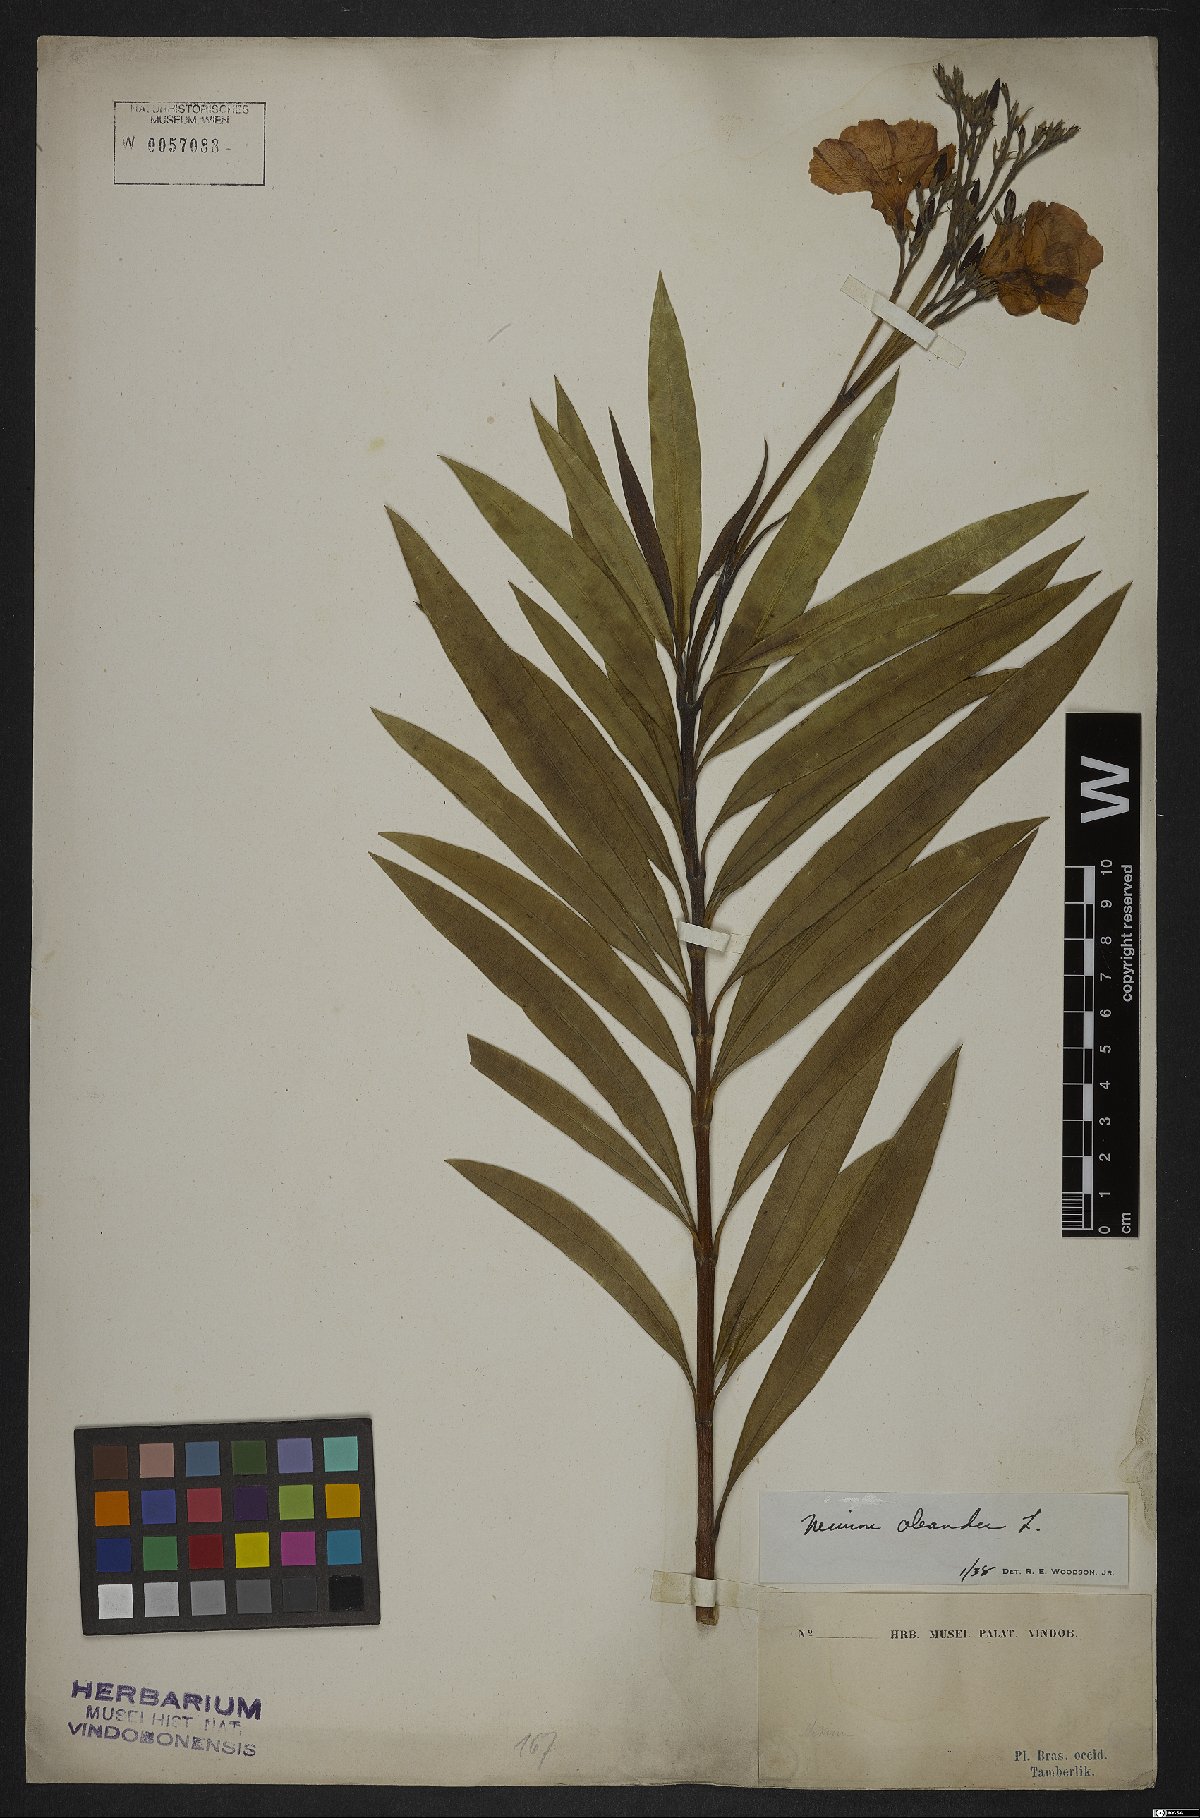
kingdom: Plantae
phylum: Tracheophyta
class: Magnoliopsida
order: Gentianales
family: Apocynaceae
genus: Nerium
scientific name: Nerium oleander
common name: Oleander
